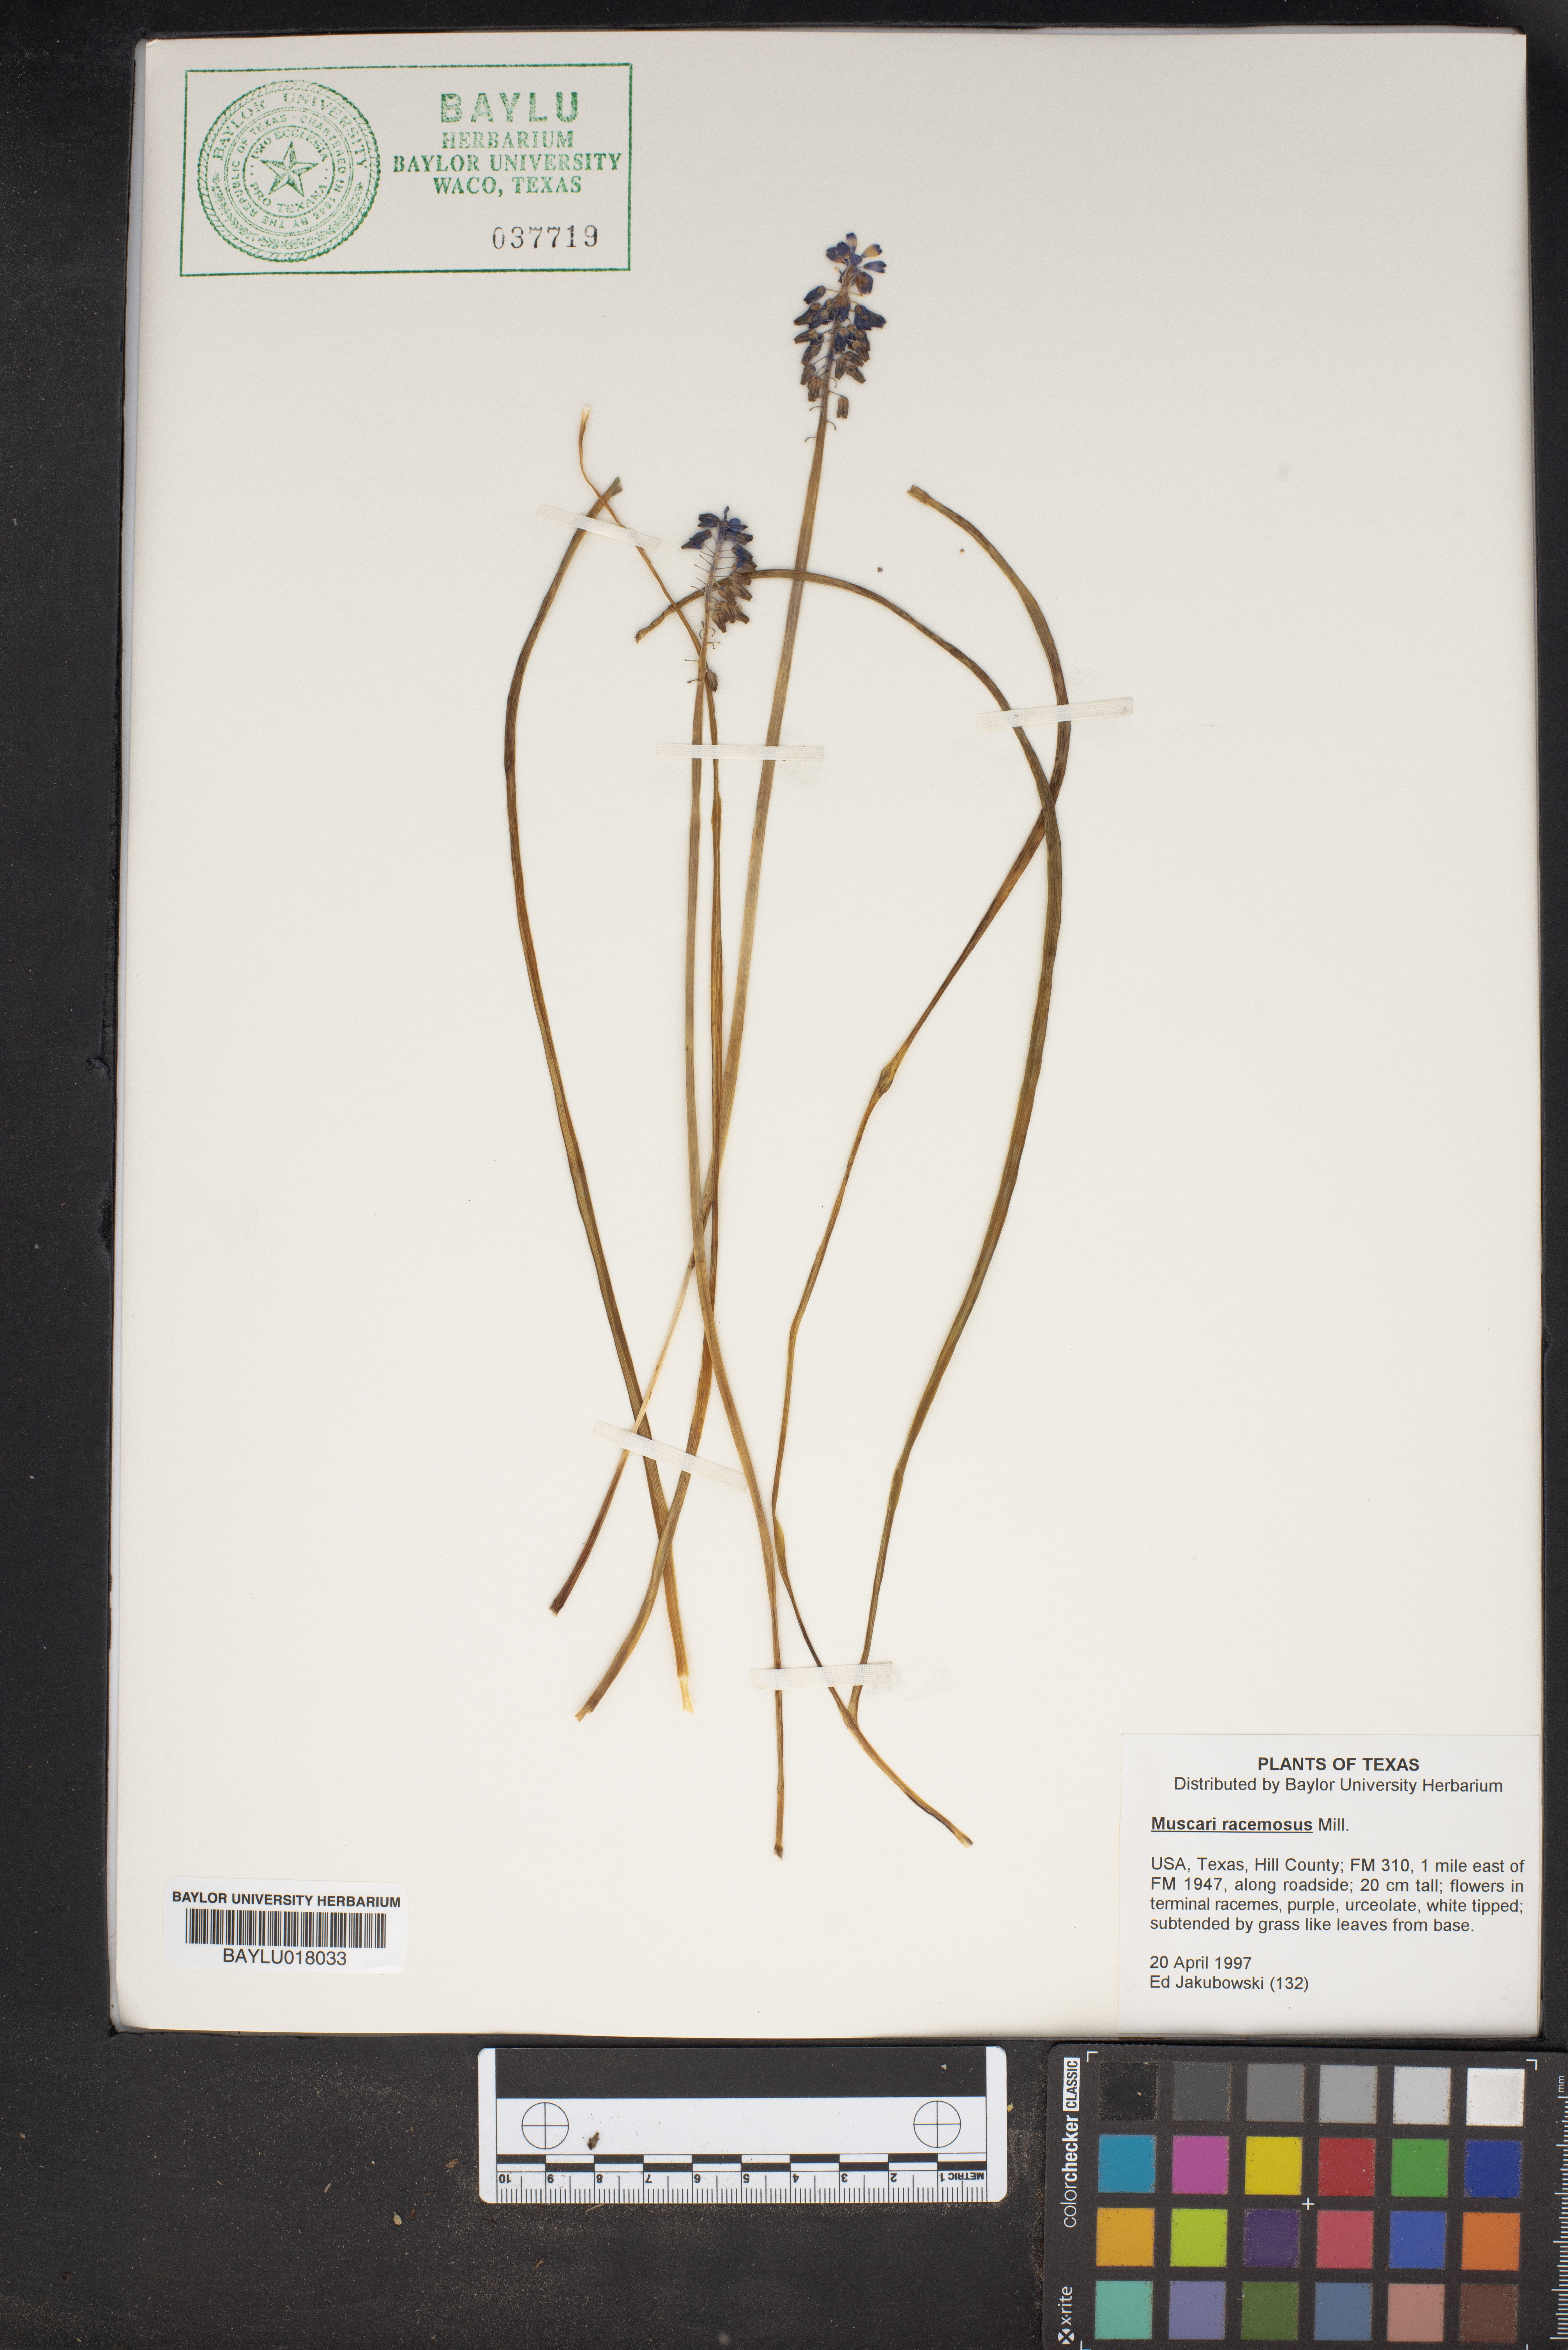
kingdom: Plantae
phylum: Tracheophyta
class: Liliopsida
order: Asparagales
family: Asparagaceae
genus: Muscarimia
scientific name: Muscarimia muscari
